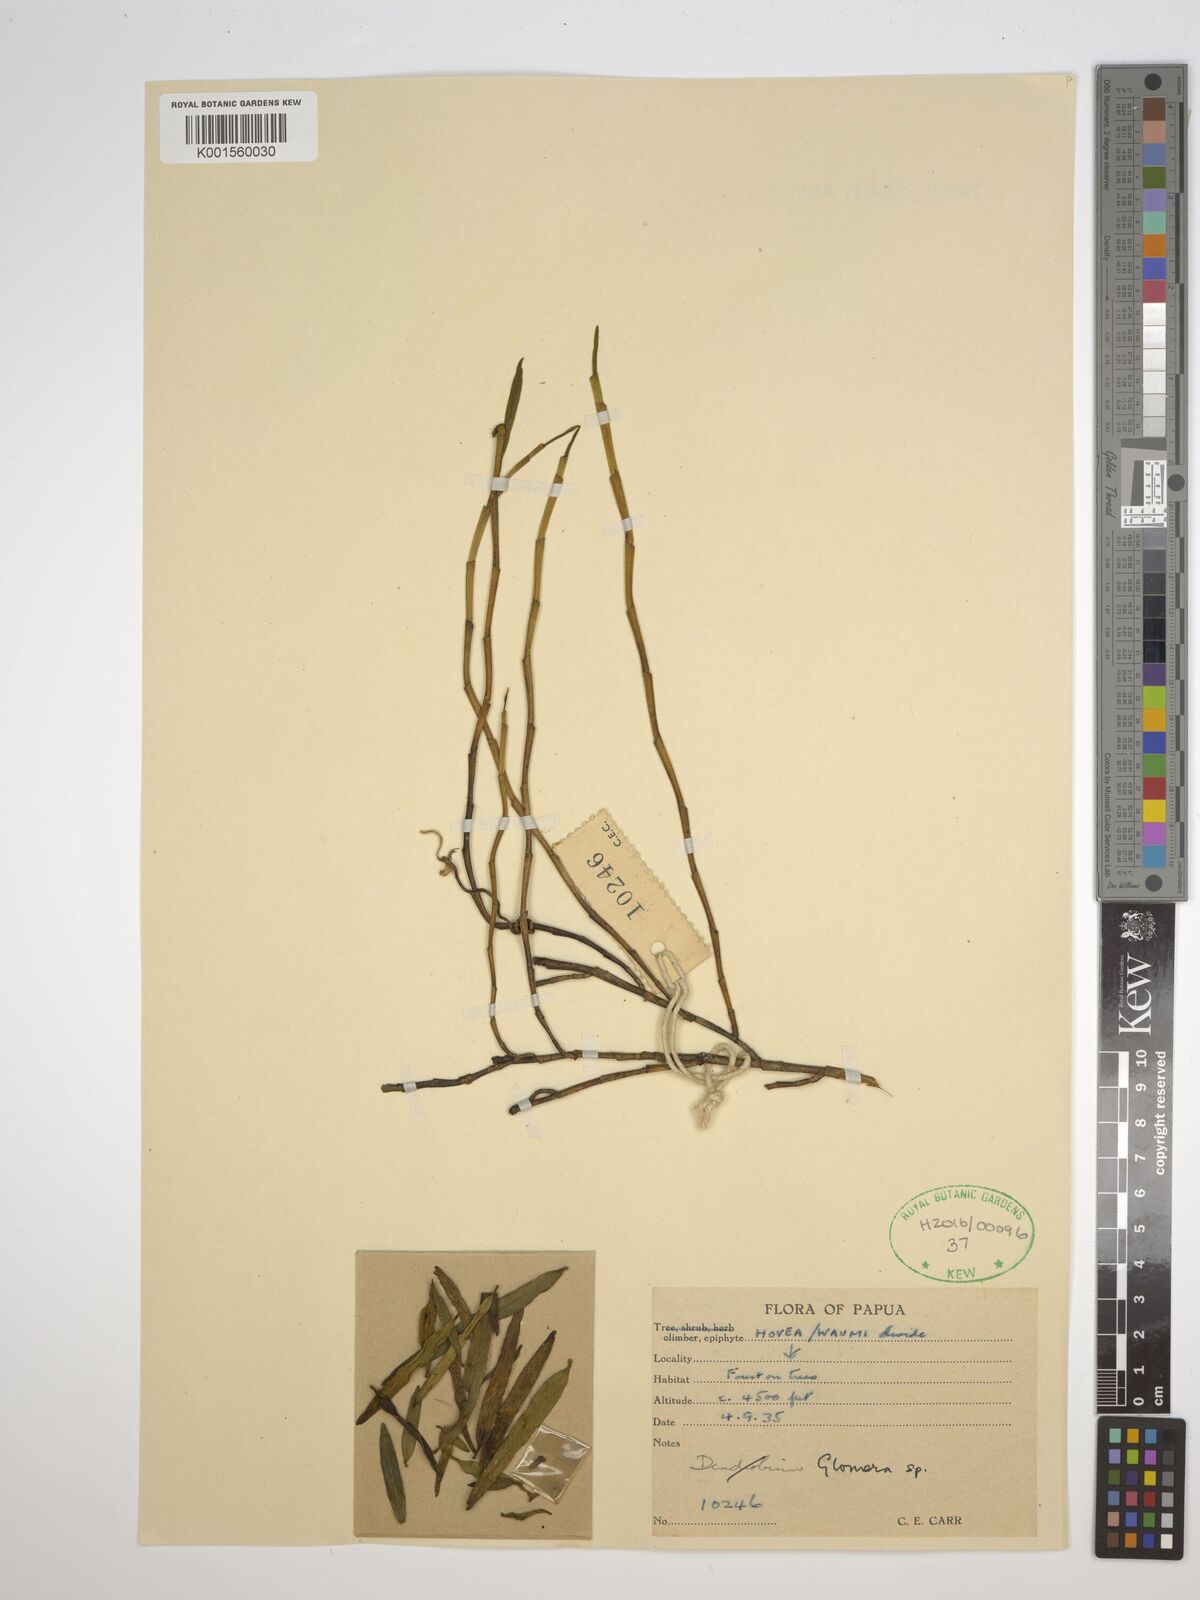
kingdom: Plantae
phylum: Tracheophyta
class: Liliopsida
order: Asparagales
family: Orchidaceae
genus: Glomera
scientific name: Glomera
